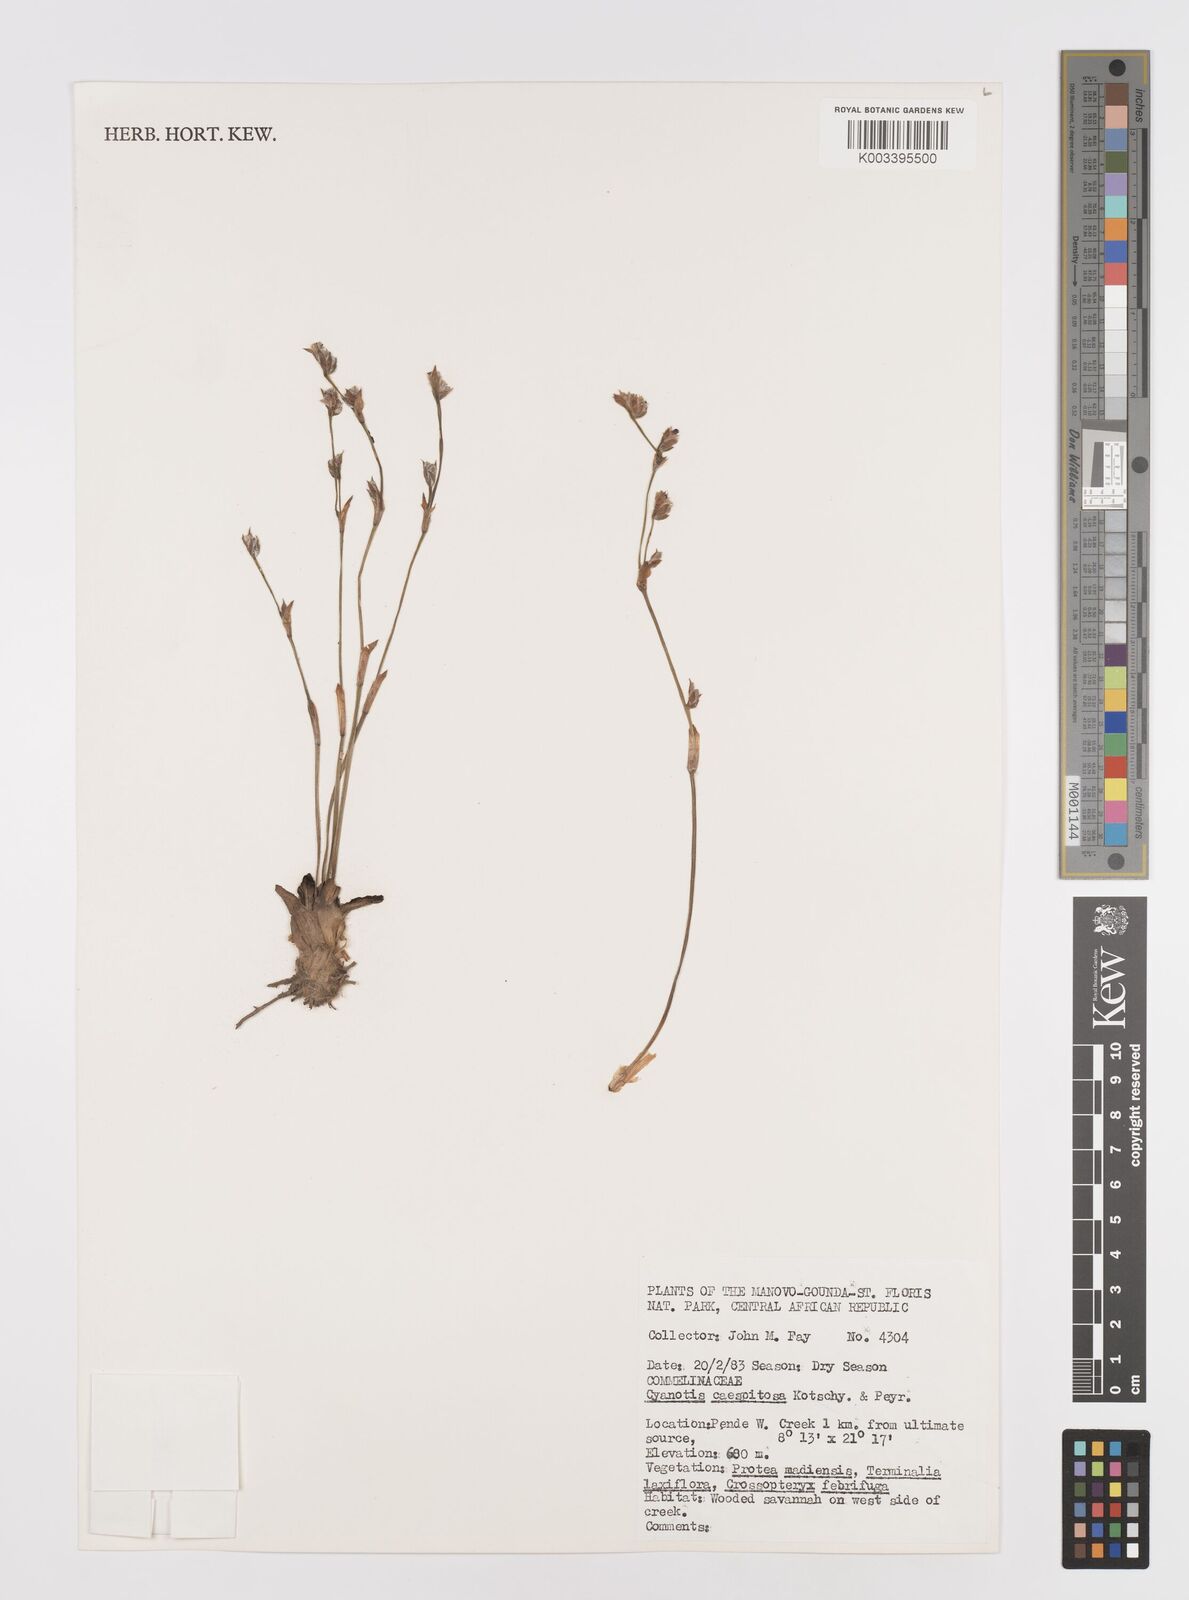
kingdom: Plantae
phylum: Tracheophyta
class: Liliopsida
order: Commelinales
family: Commelinaceae
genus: Cyanotis
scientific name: Cyanotis caespitosa
